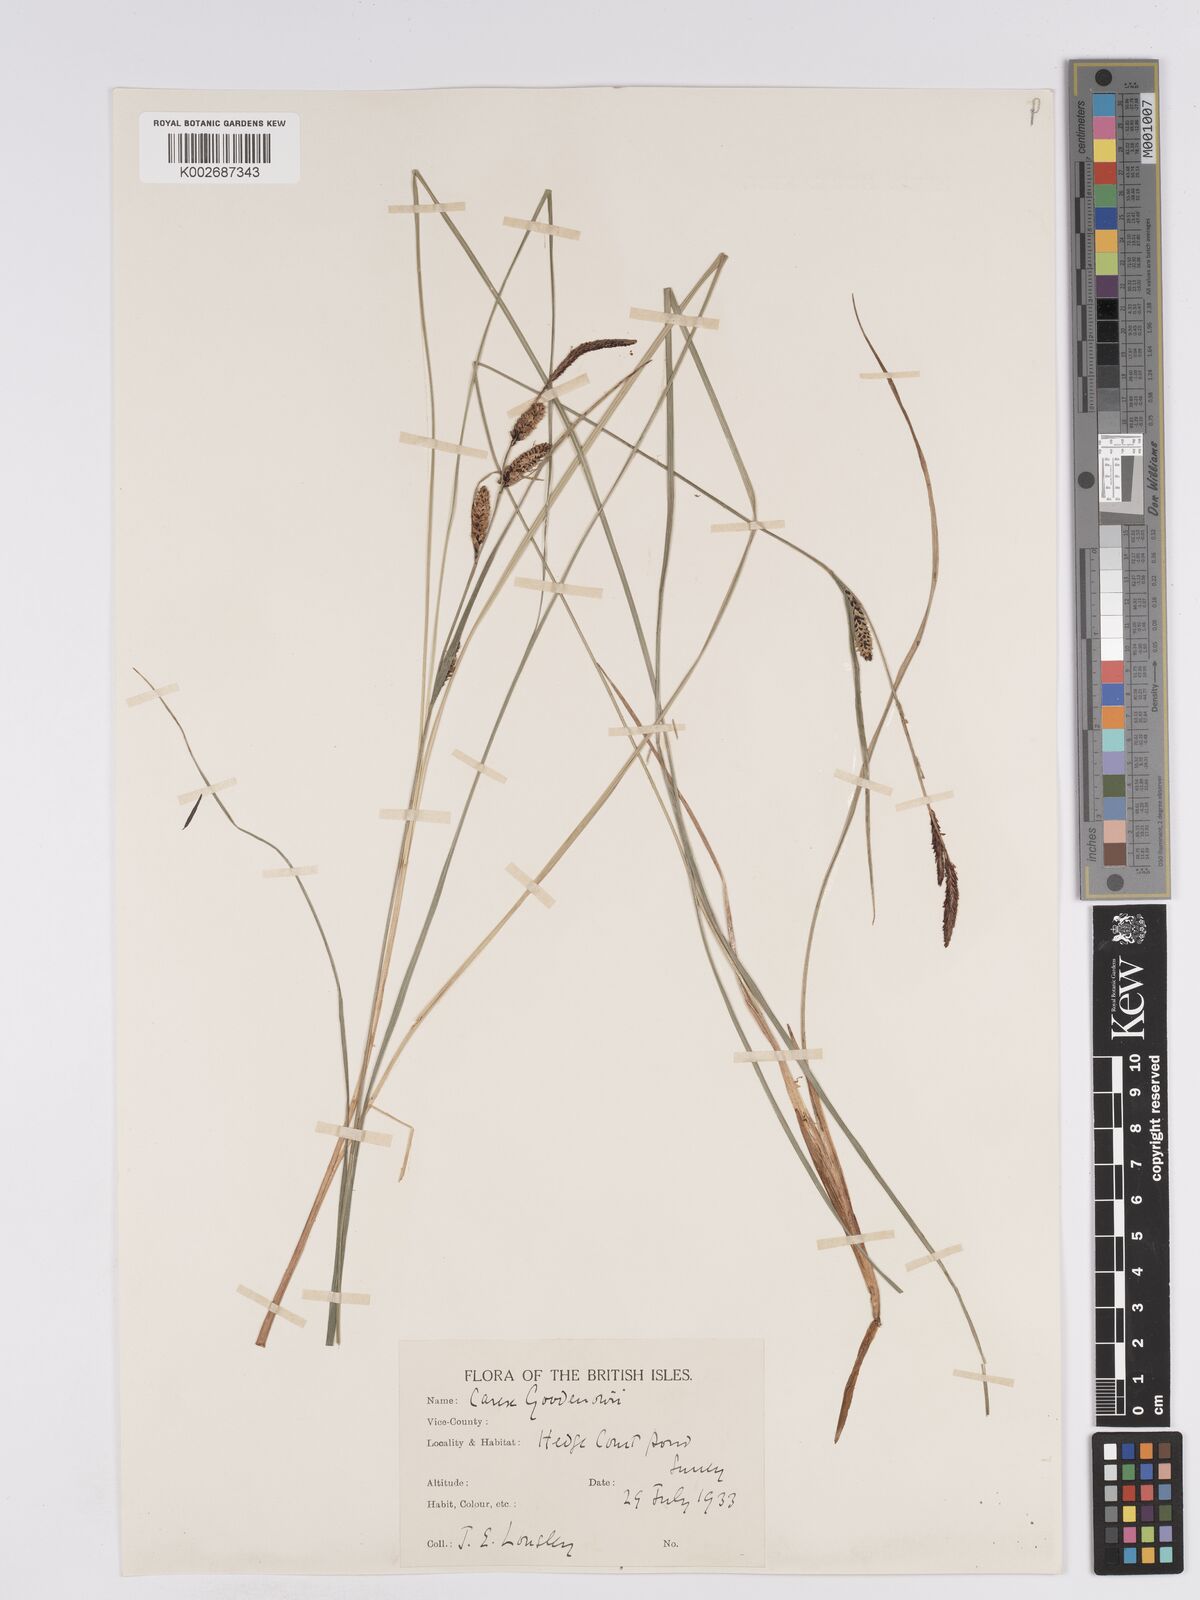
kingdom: Plantae
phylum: Tracheophyta
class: Liliopsida
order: Poales
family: Cyperaceae
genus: Carex
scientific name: Carex nigra
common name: Common sedge
